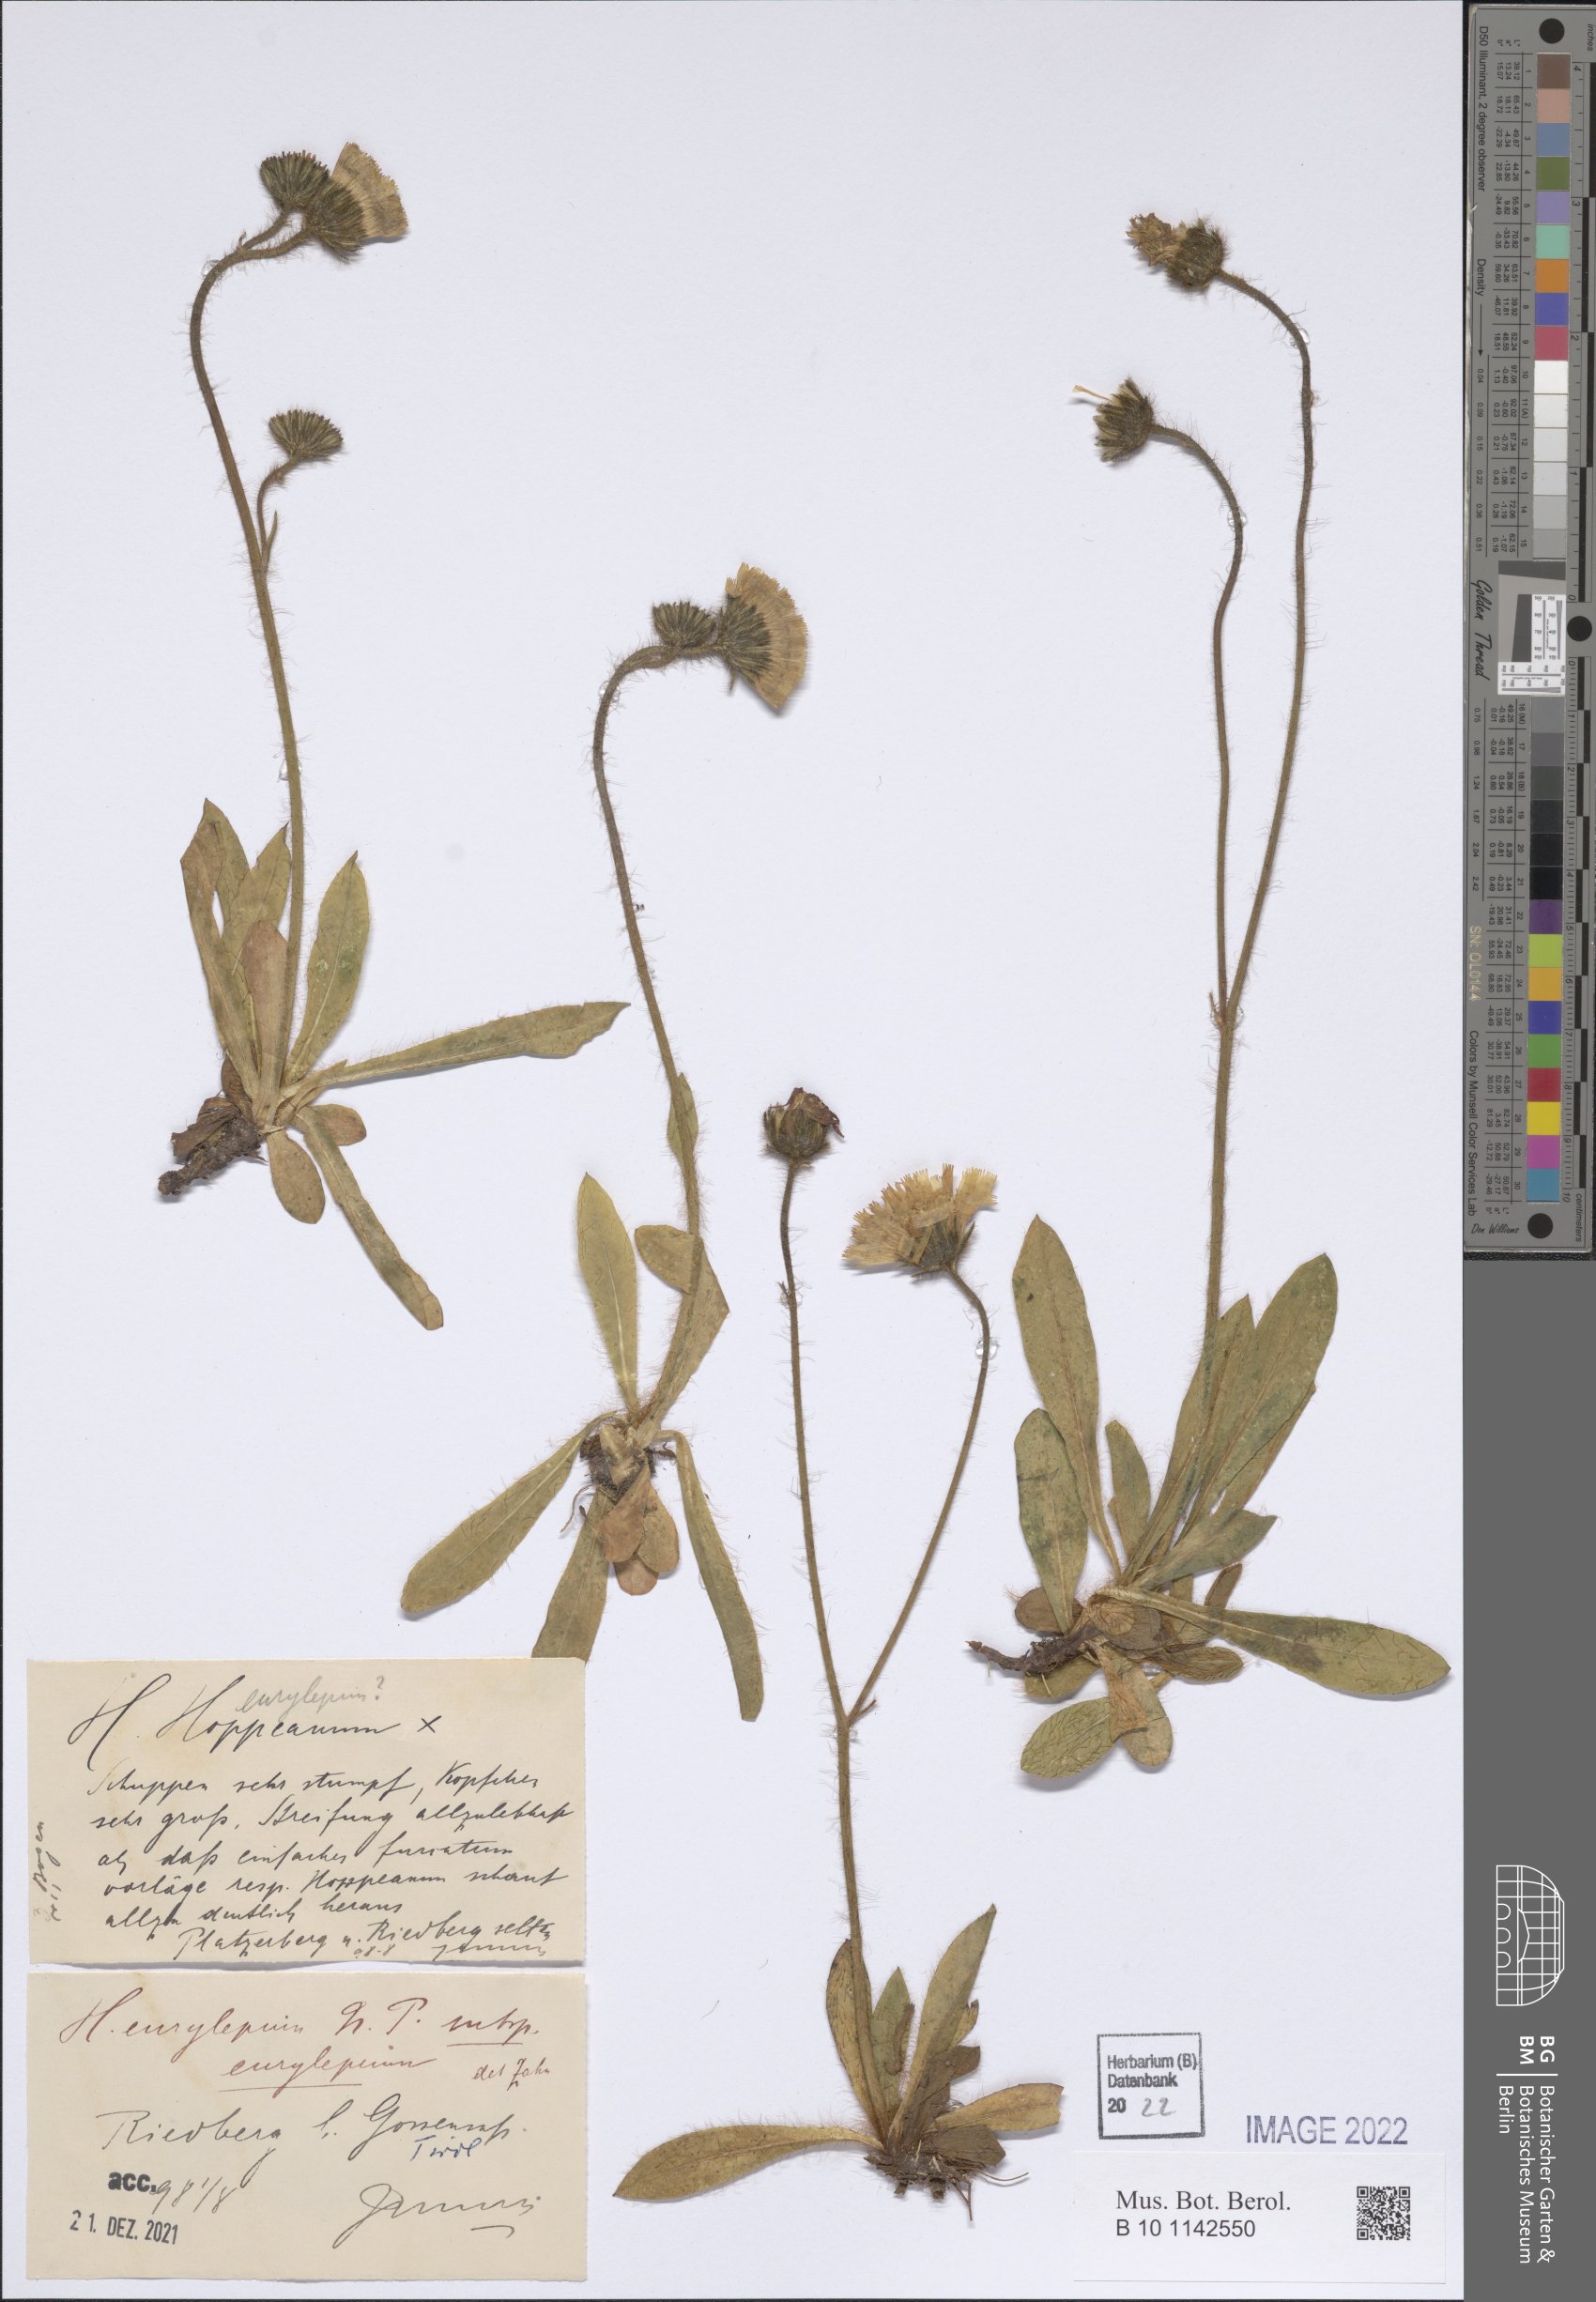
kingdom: Plantae
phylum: Tracheophyta
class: Magnoliopsida
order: Asterales
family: Asteraceae
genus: Pilosella
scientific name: Pilosella pachypila
